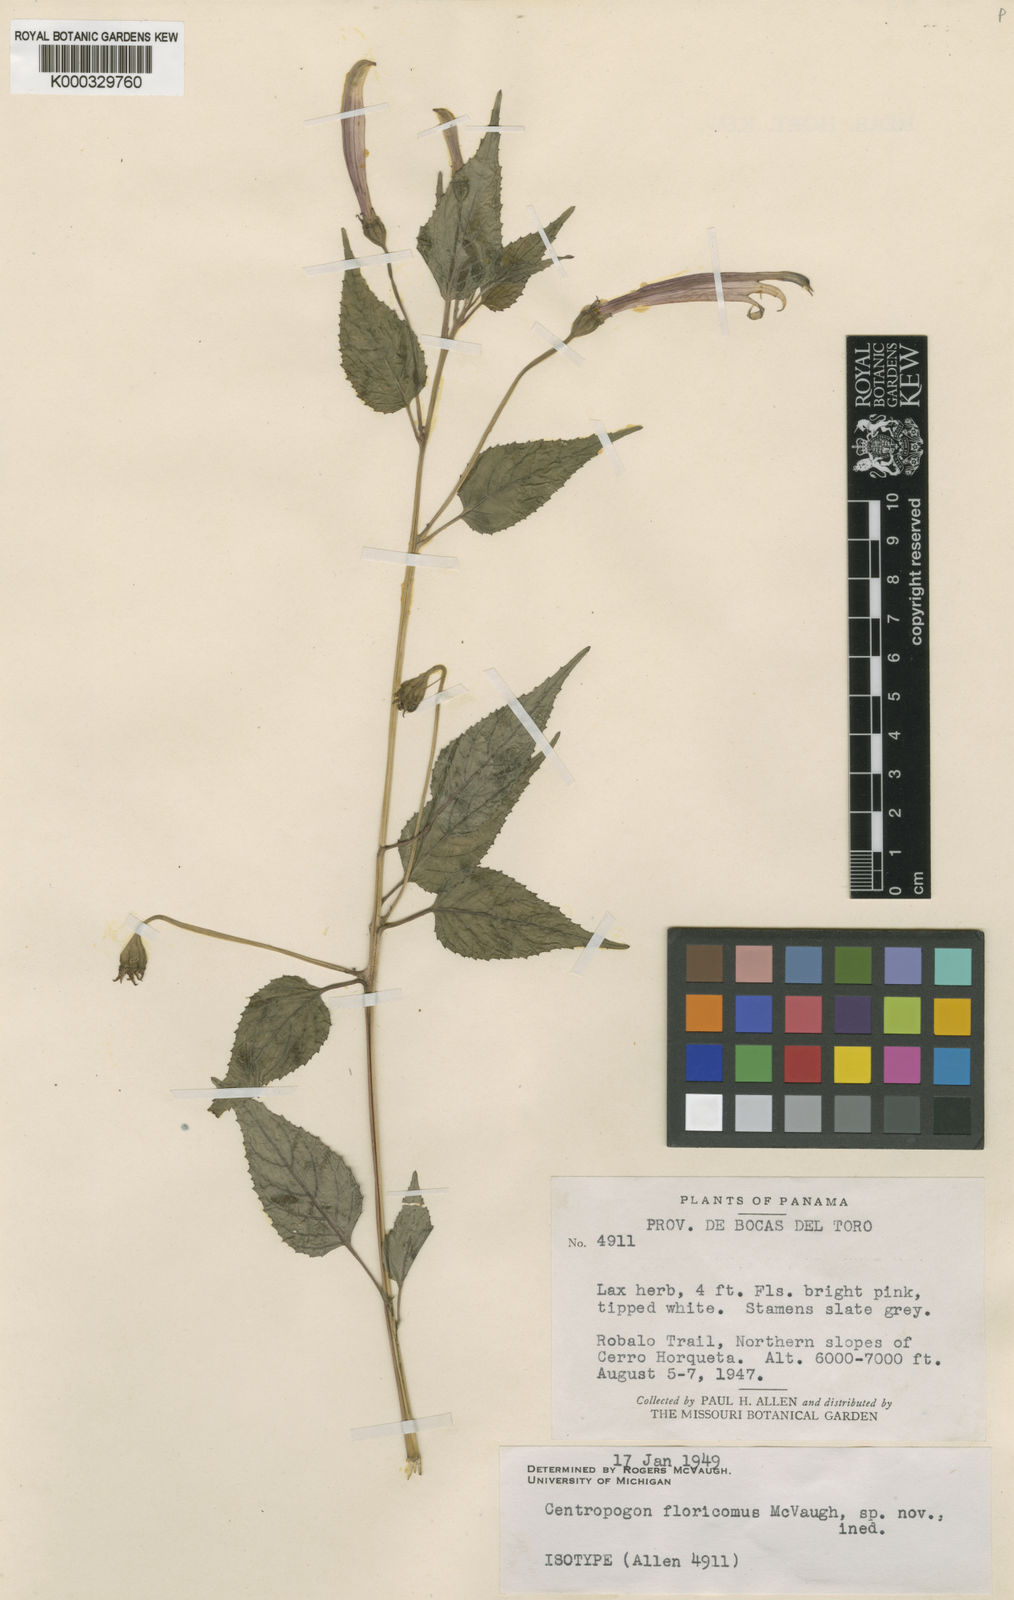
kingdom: Plantae
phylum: Tracheophyta
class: Magnoliopsida
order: Asterales
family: Campanulaceae
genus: Centropogon
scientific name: Centropogon floricomus
